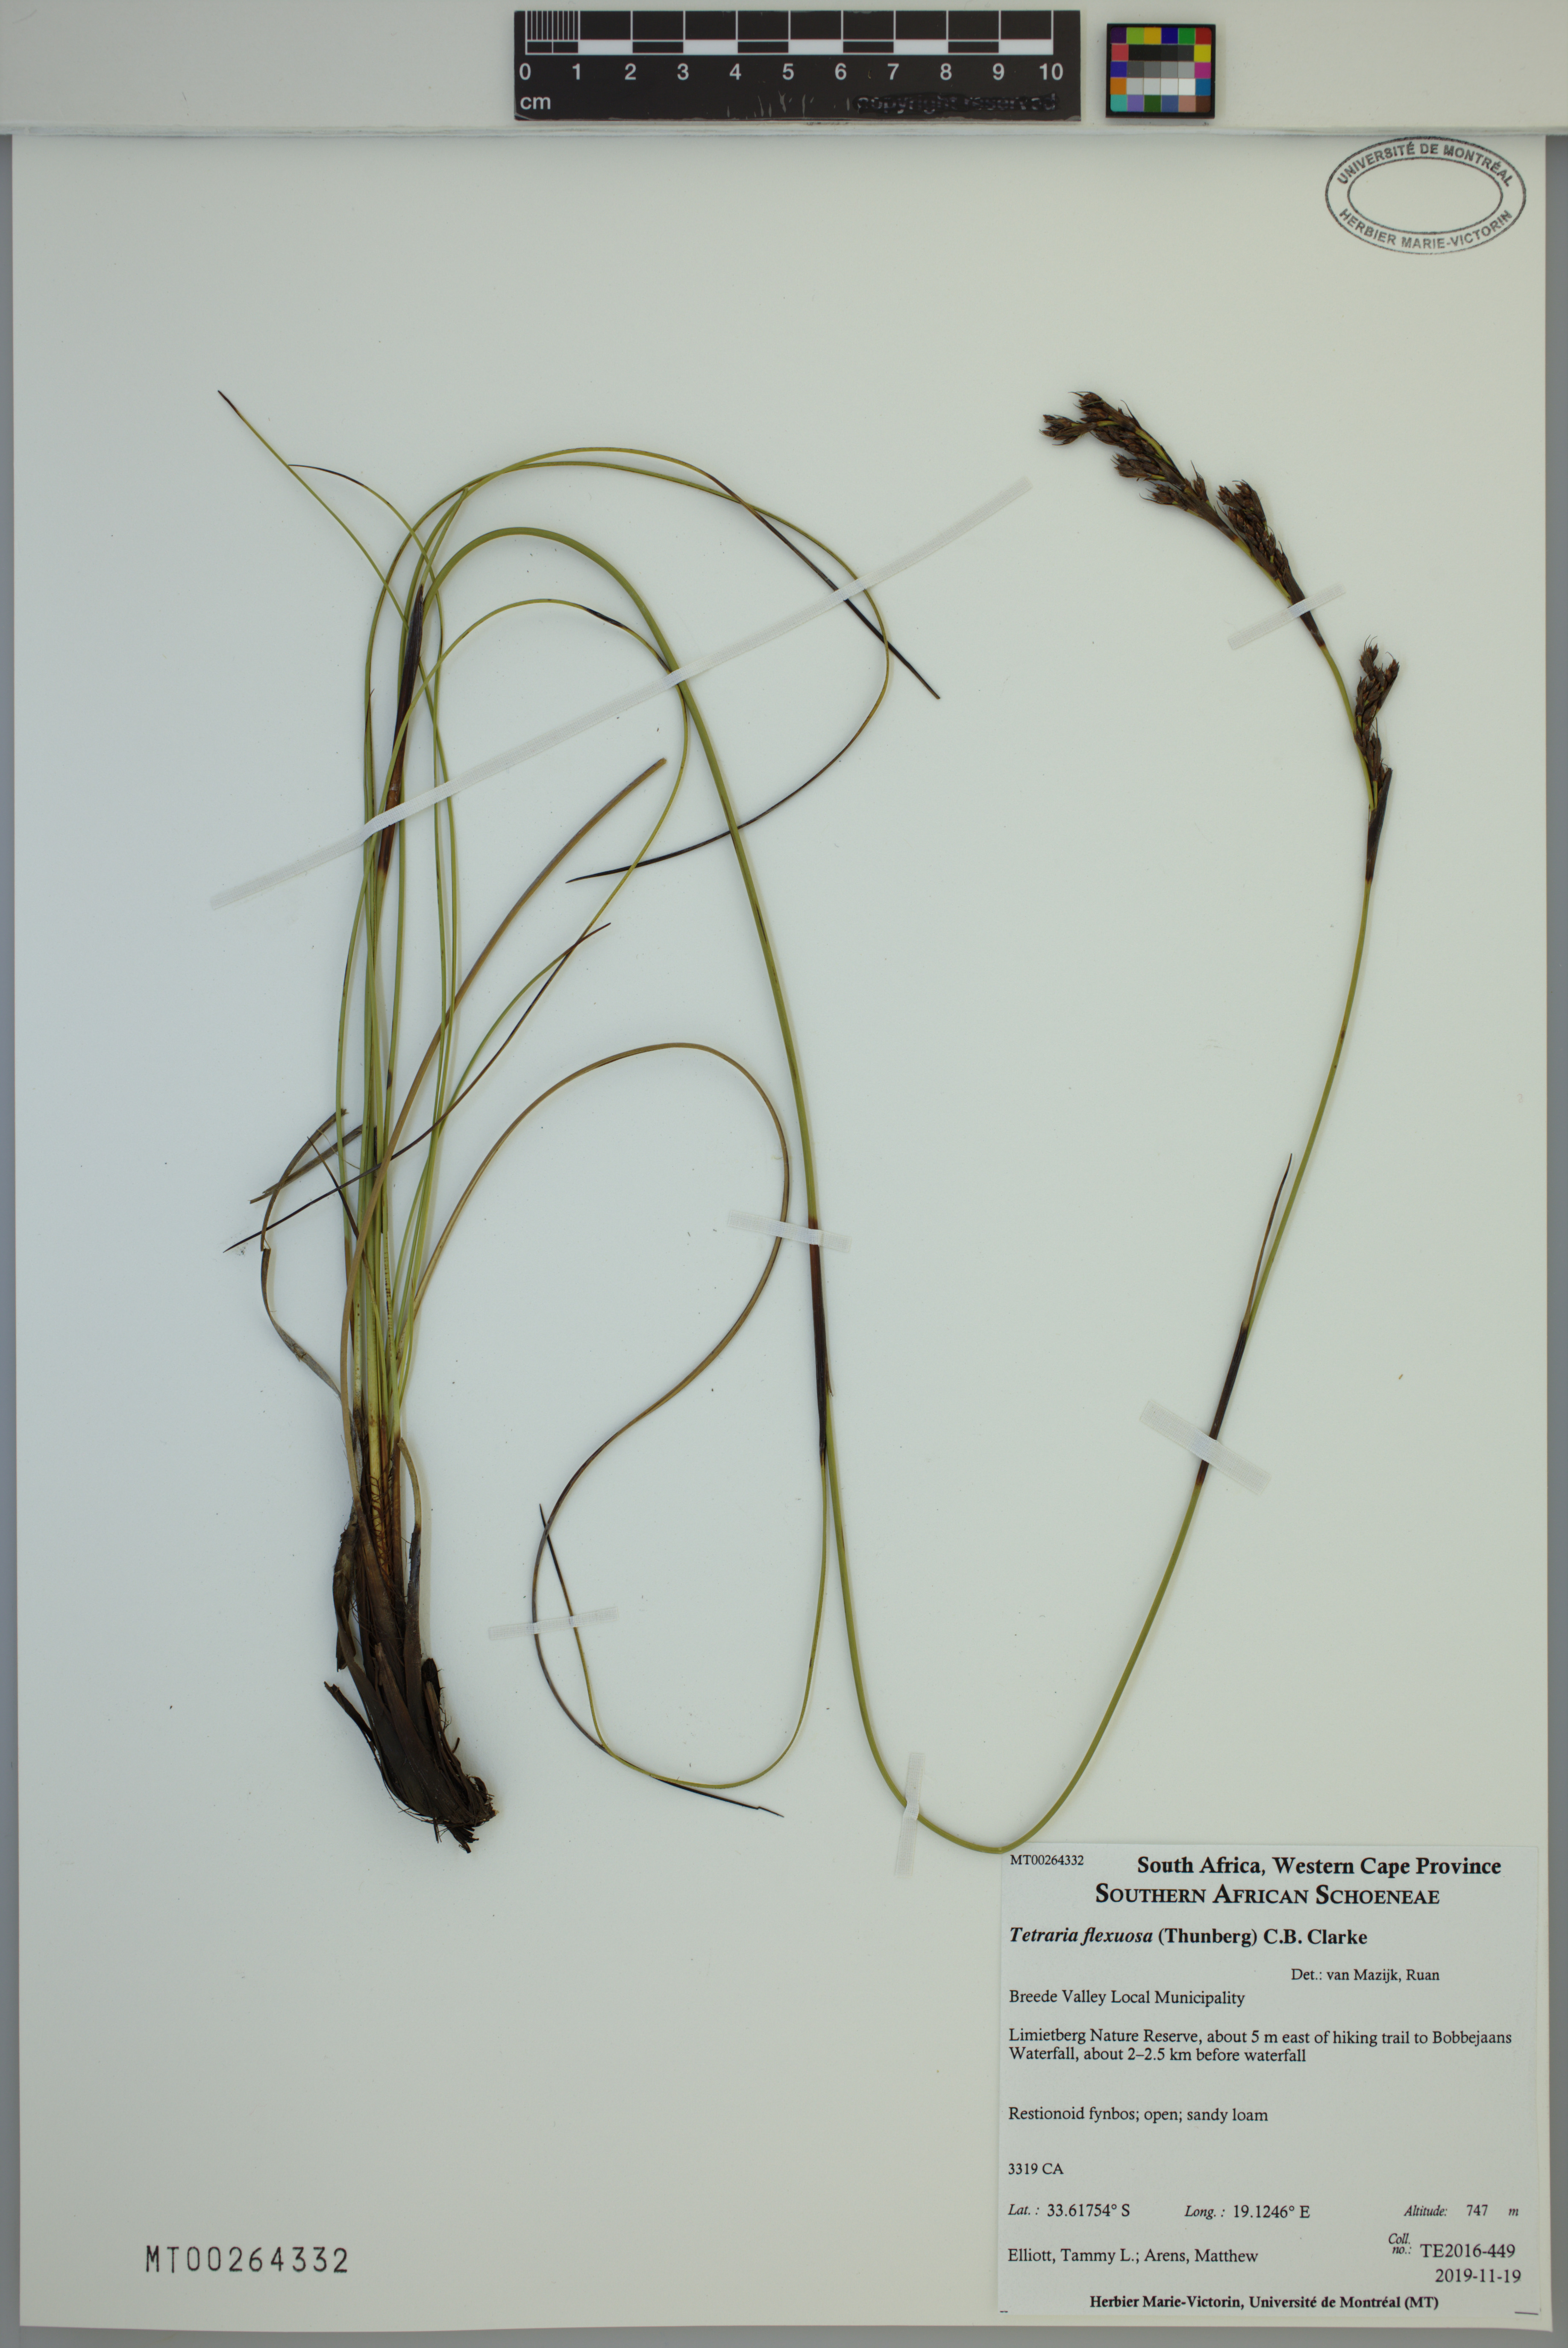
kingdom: Plantae
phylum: Tracheophyta
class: Liliopsida
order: Poales
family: Cyperaceae
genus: Tetraria
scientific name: Tetraria flexuosa
